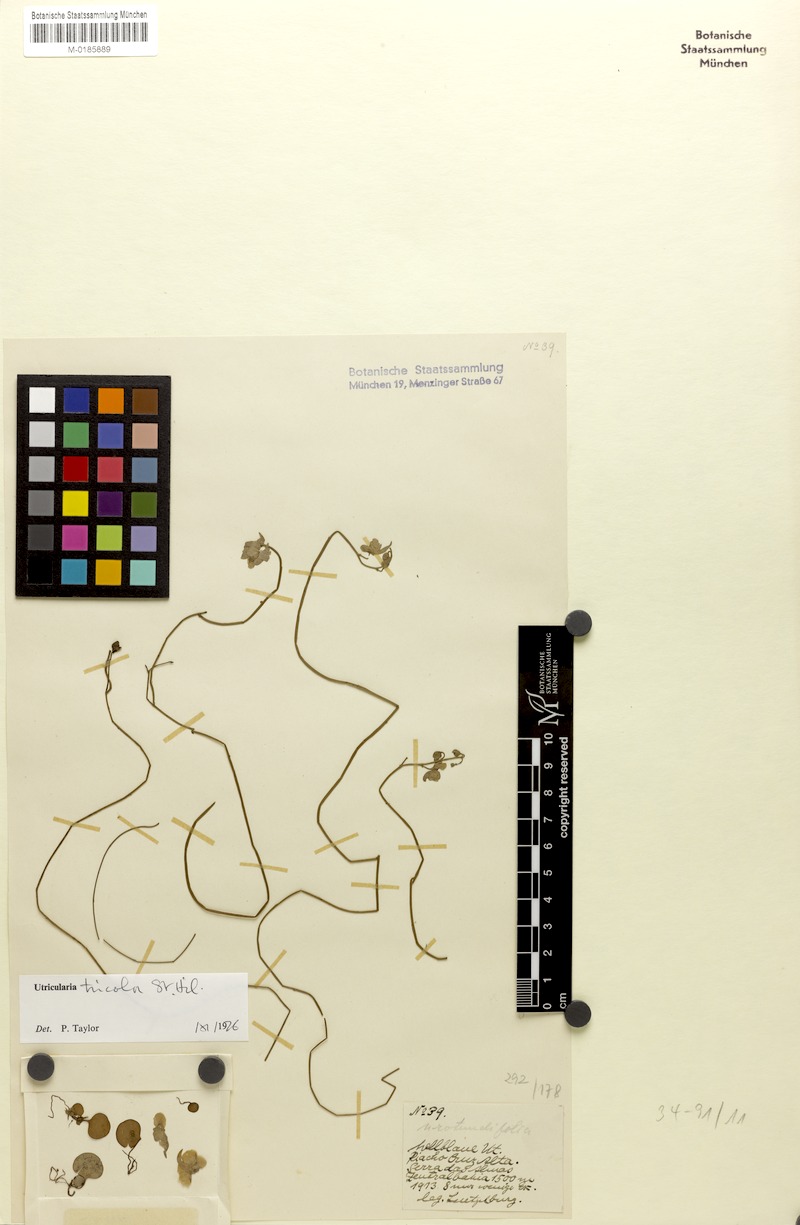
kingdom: Plantae
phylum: Tracheophyta
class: Magnoliopsida
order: Lamiales
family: Lentibulariaceae
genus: Utricularia
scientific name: Utricularia tricolor
